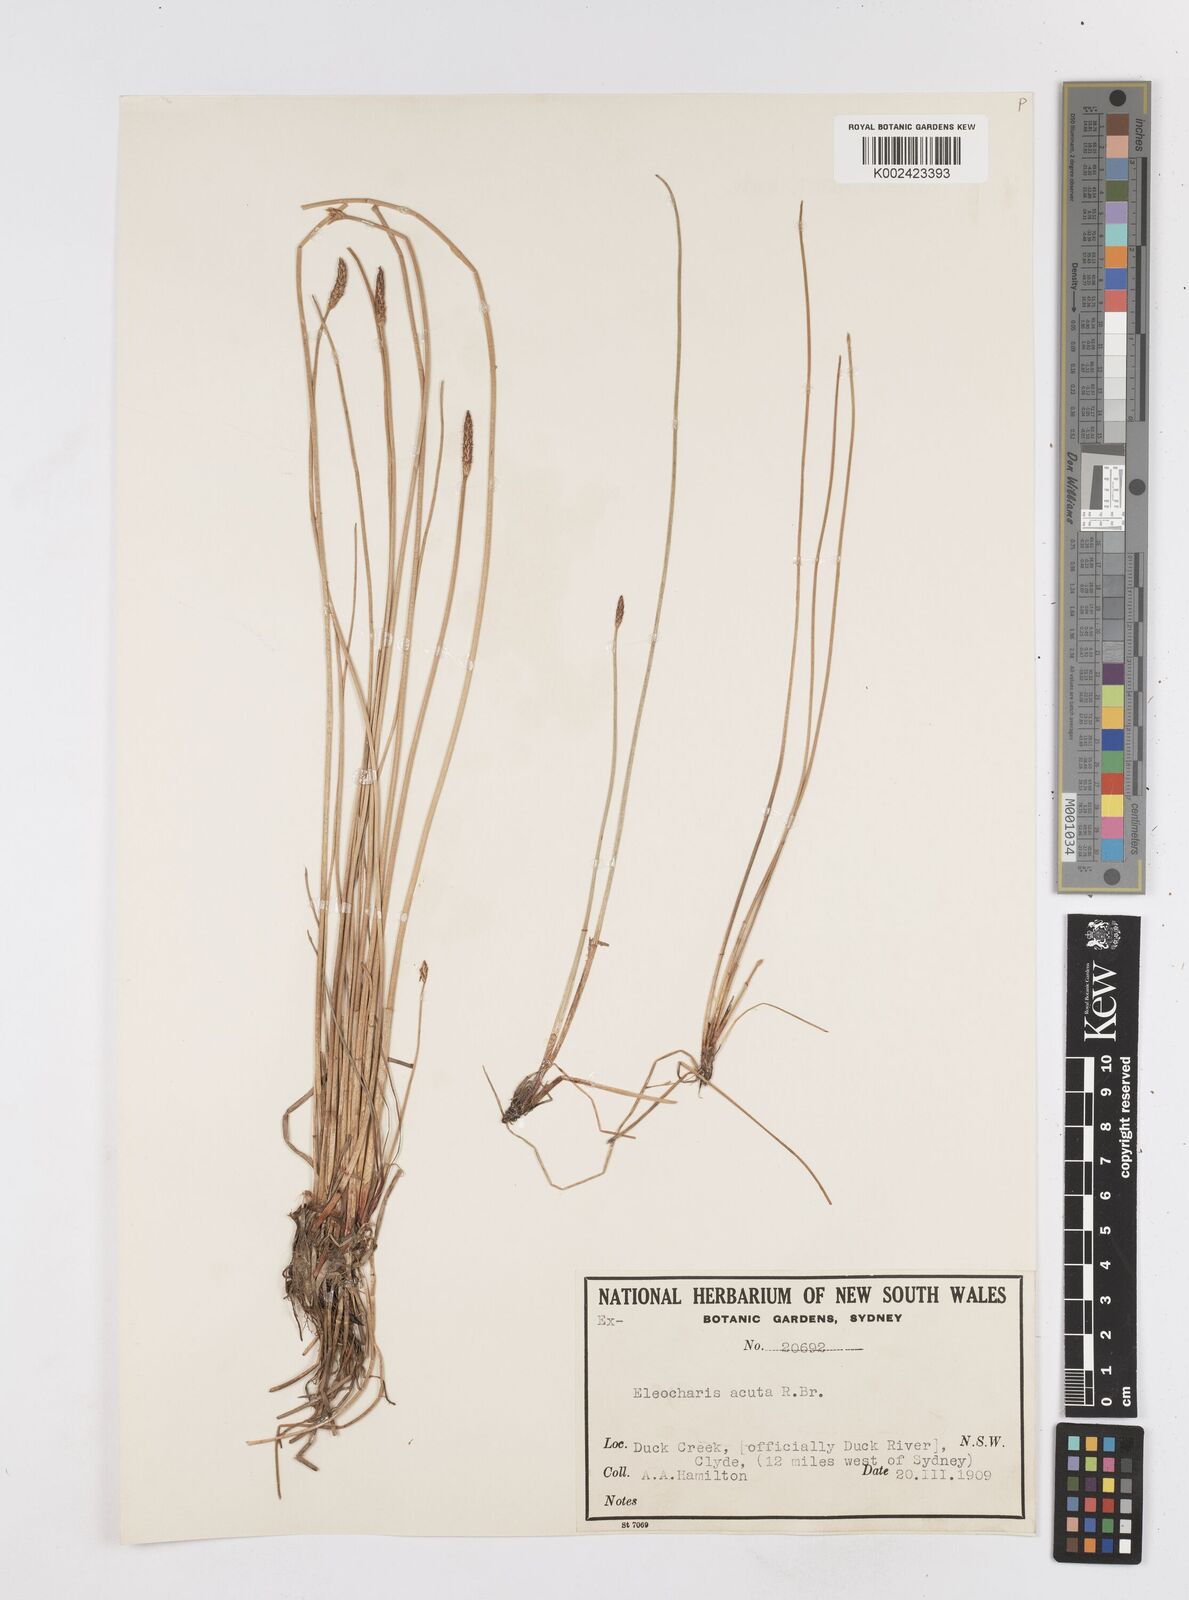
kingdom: Plantae
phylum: Tracheophyta
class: Liliopsida
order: Poales
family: Cyperaceae
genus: Eleocharis
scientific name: Eleocharis acuta
